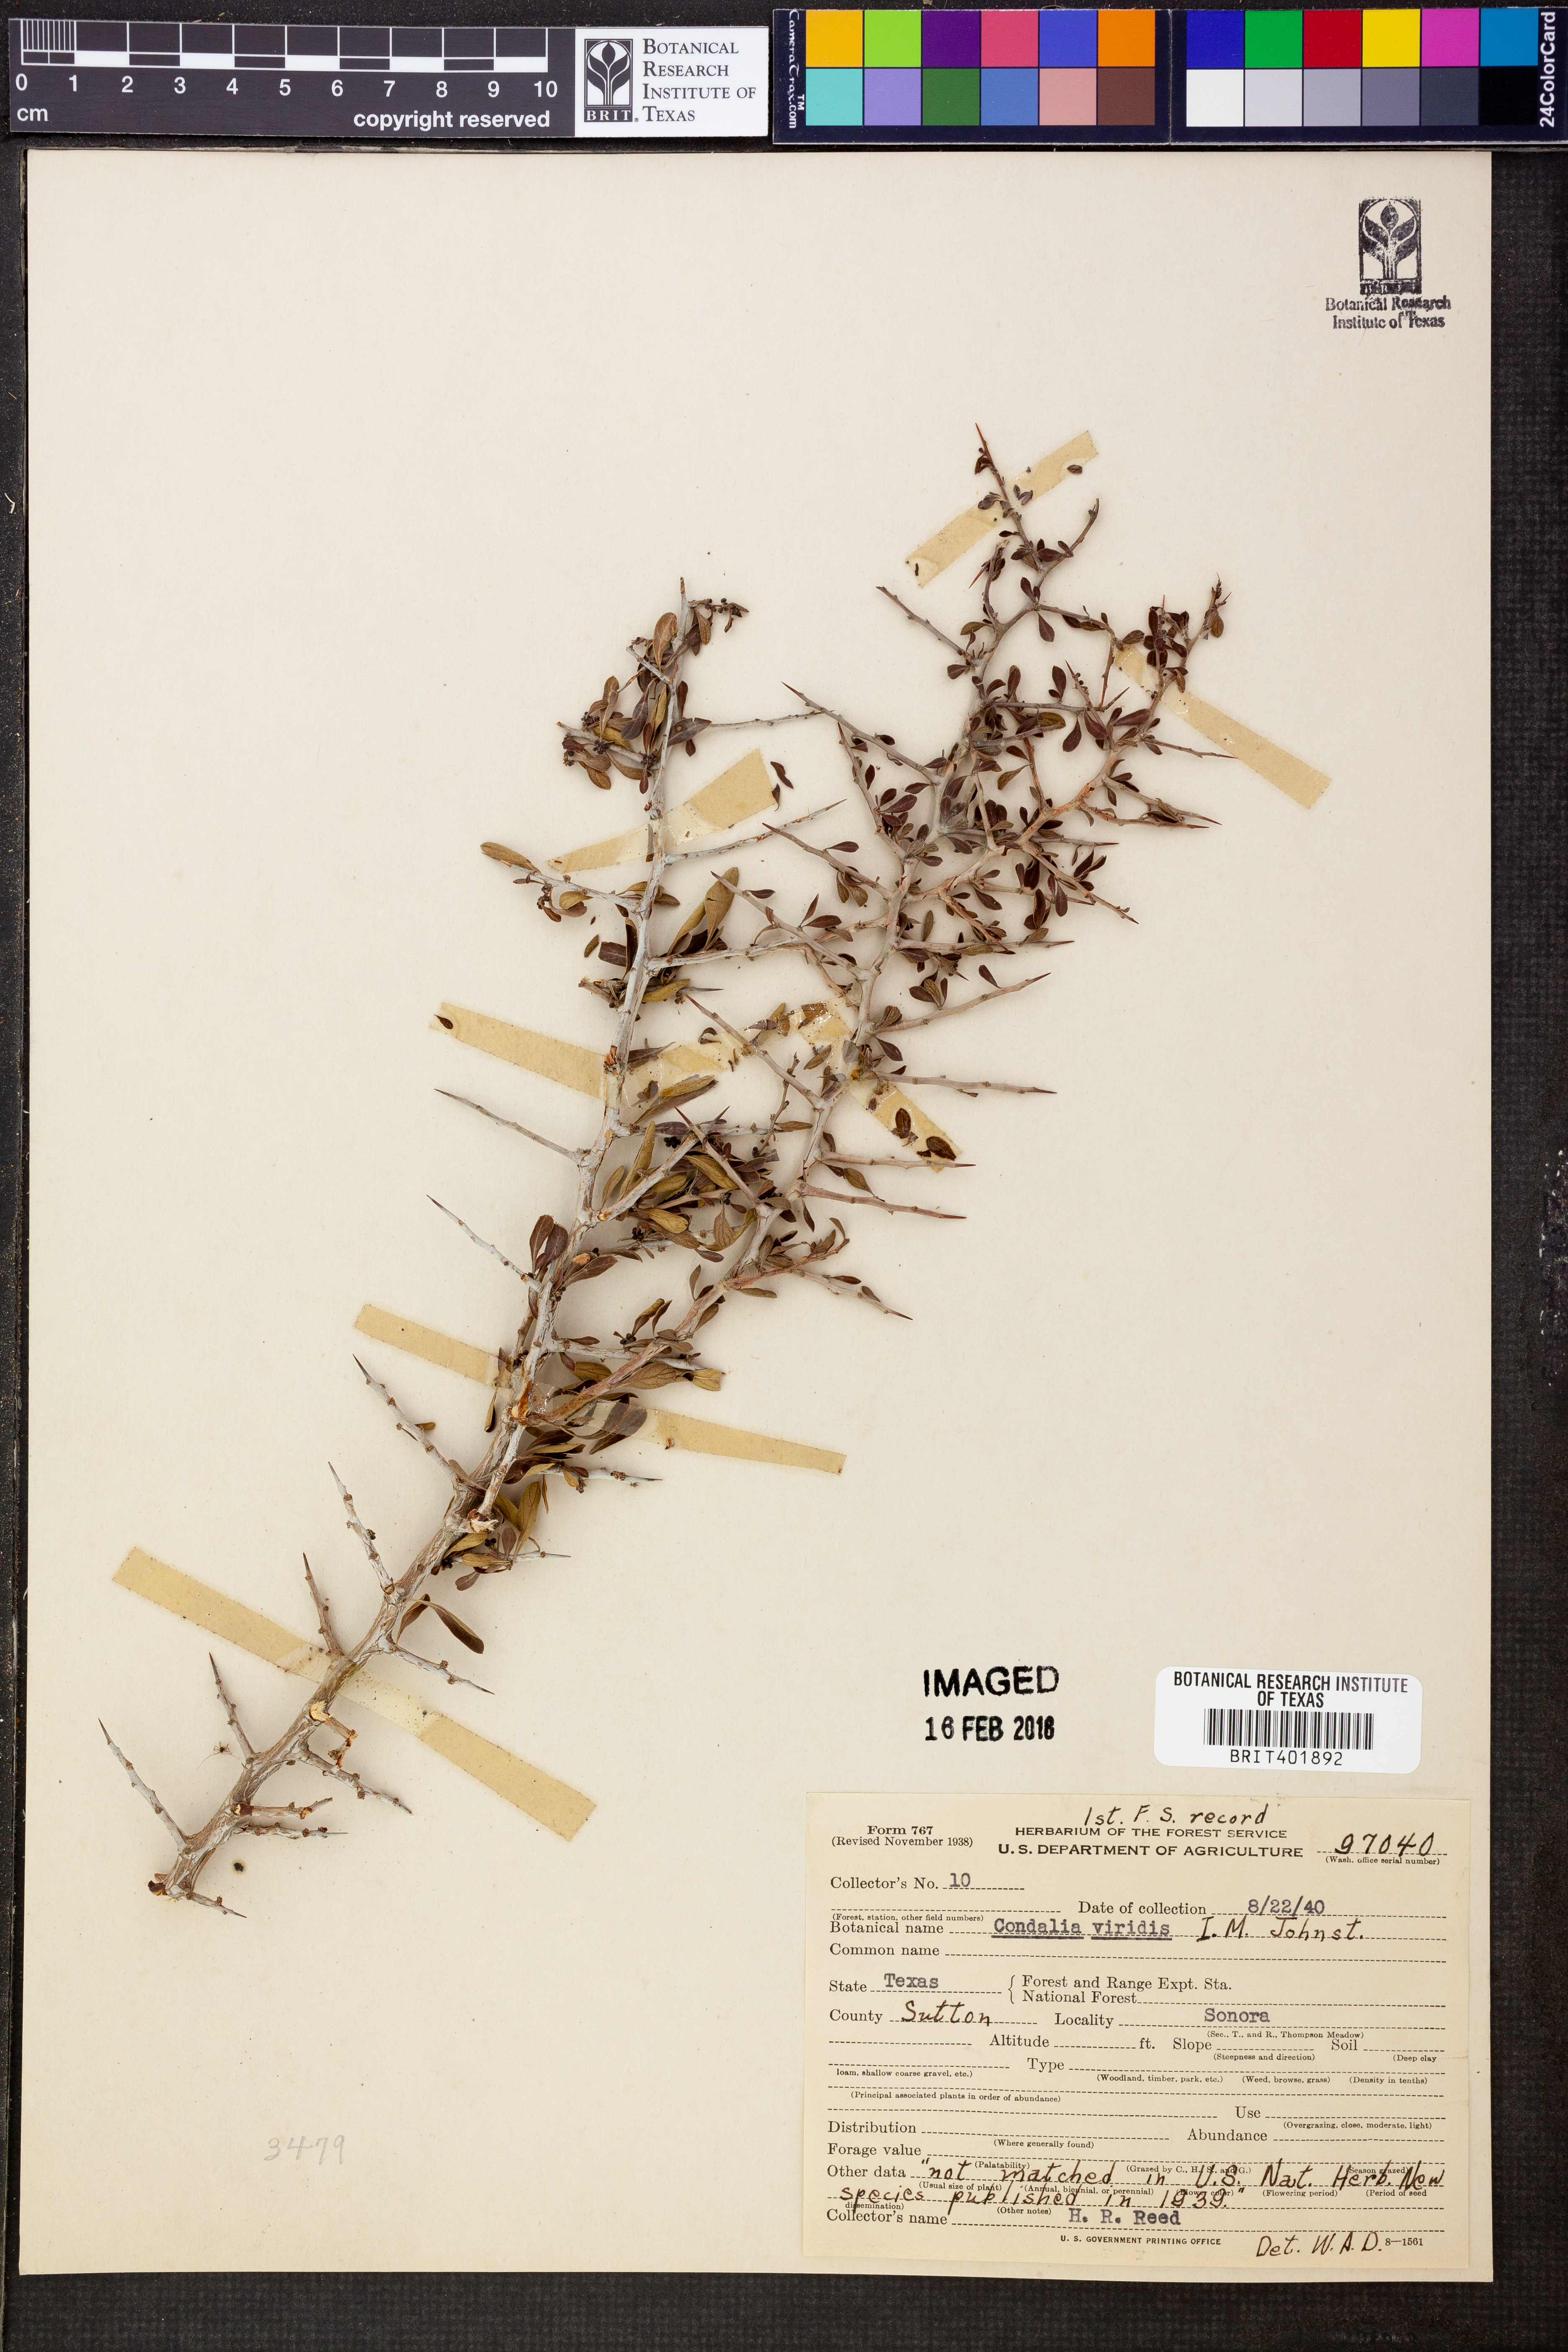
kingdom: Plantae
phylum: Tracheophyta
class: Magnoliopsida
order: Rosales
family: Rhamnaceae
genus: Condalia
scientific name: Condalia viridis
